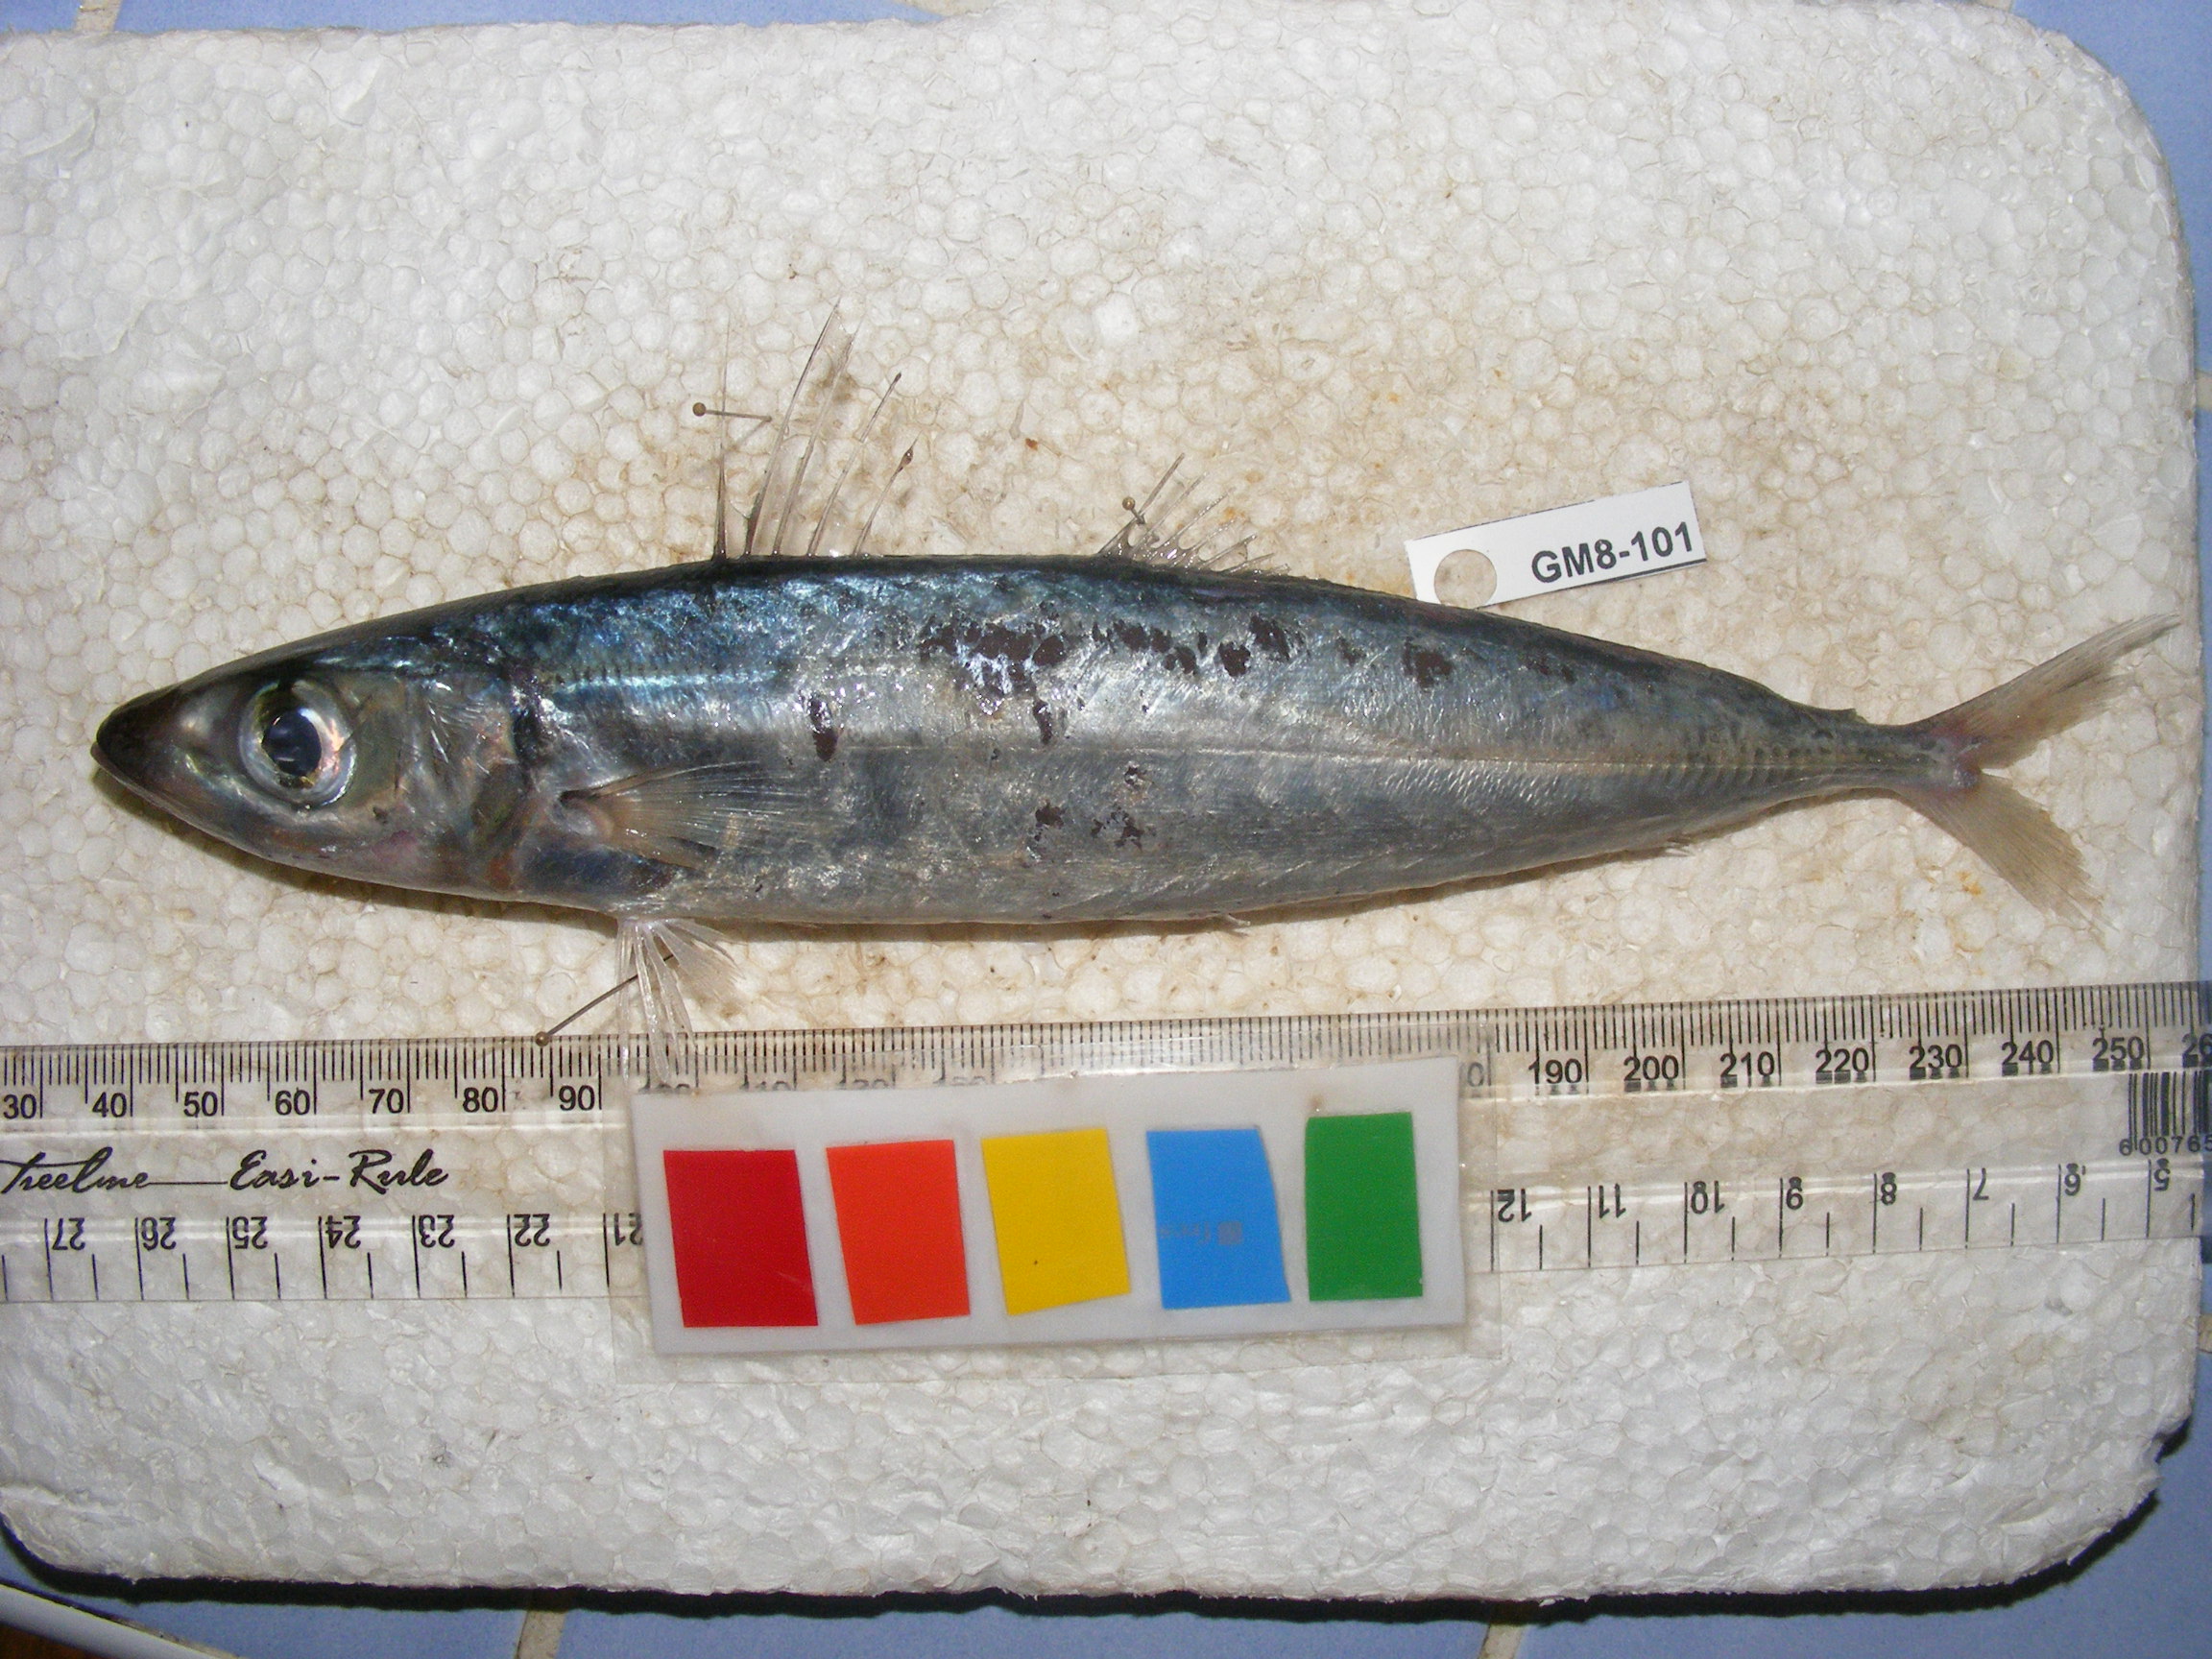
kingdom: Animalia
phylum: Chordata
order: Perciformes
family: Carangidae
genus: Decapterus
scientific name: Decapterus macarellus
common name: Mackerel scad
